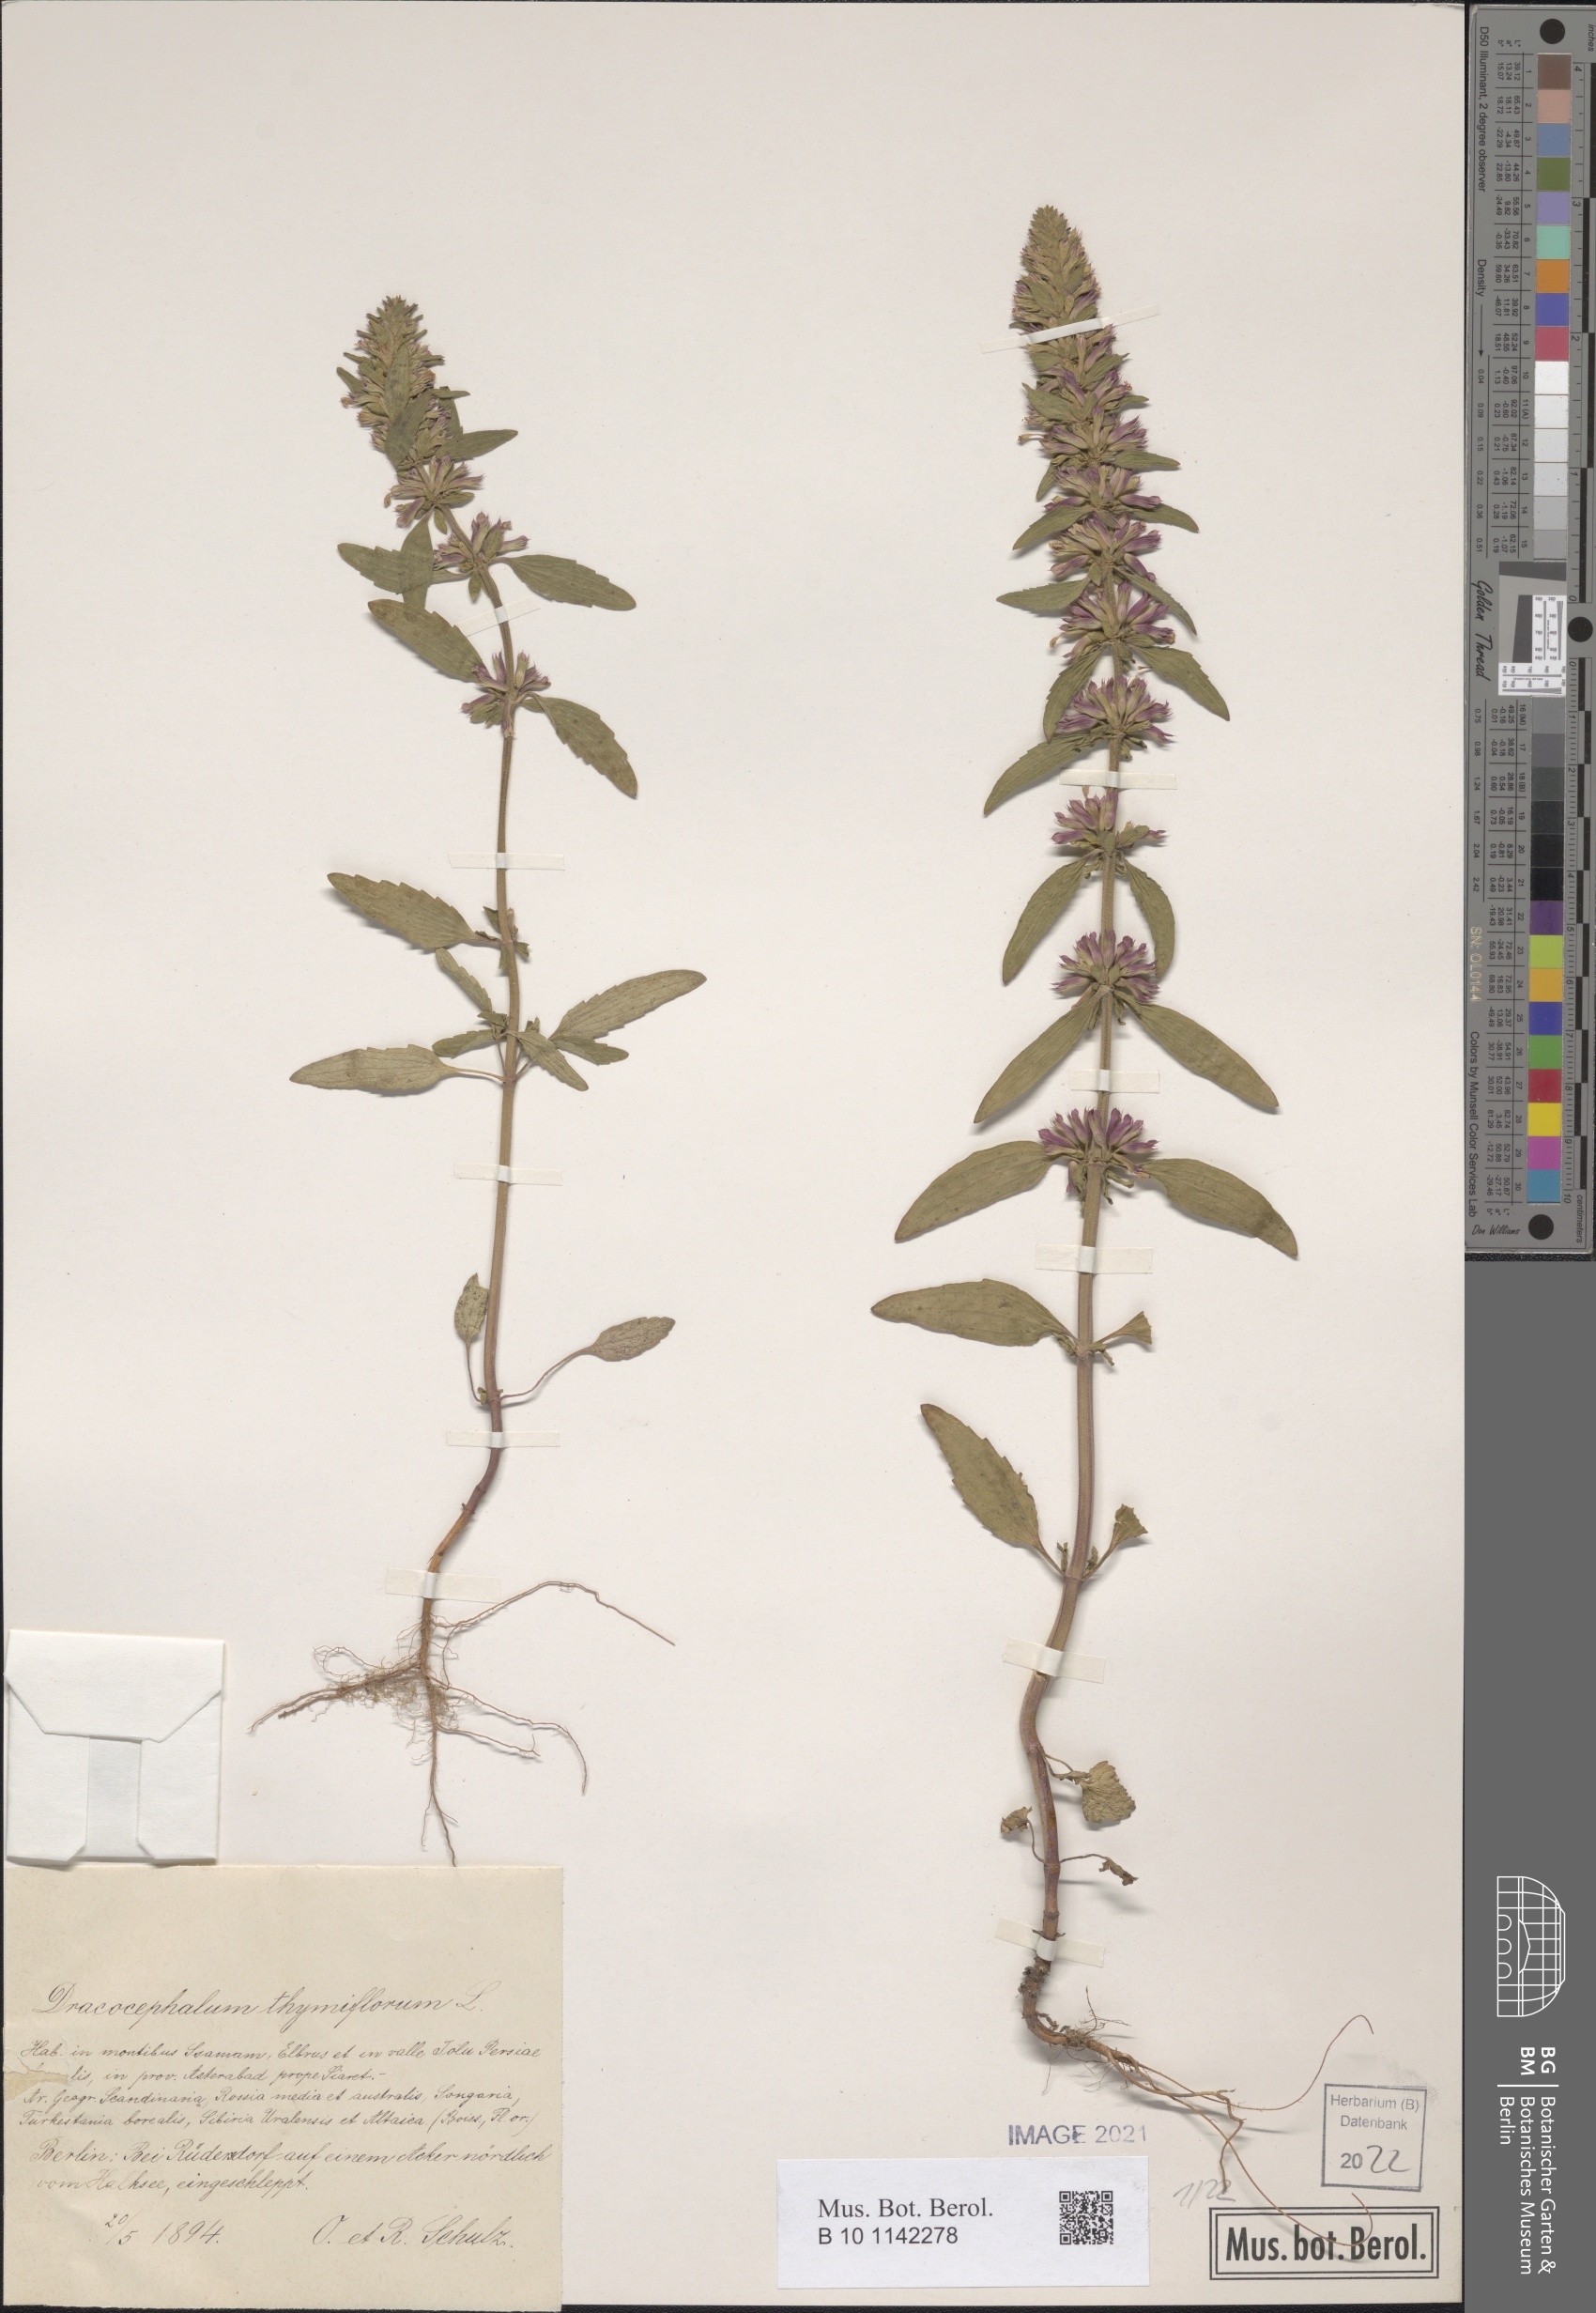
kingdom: Plantae
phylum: Tracheophyta
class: Magnoliopsida
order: Lamiales
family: Lamiaceae
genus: Dracocephalum
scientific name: Dracocephalum thymiflorum
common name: Thymeleaf dragonhead
